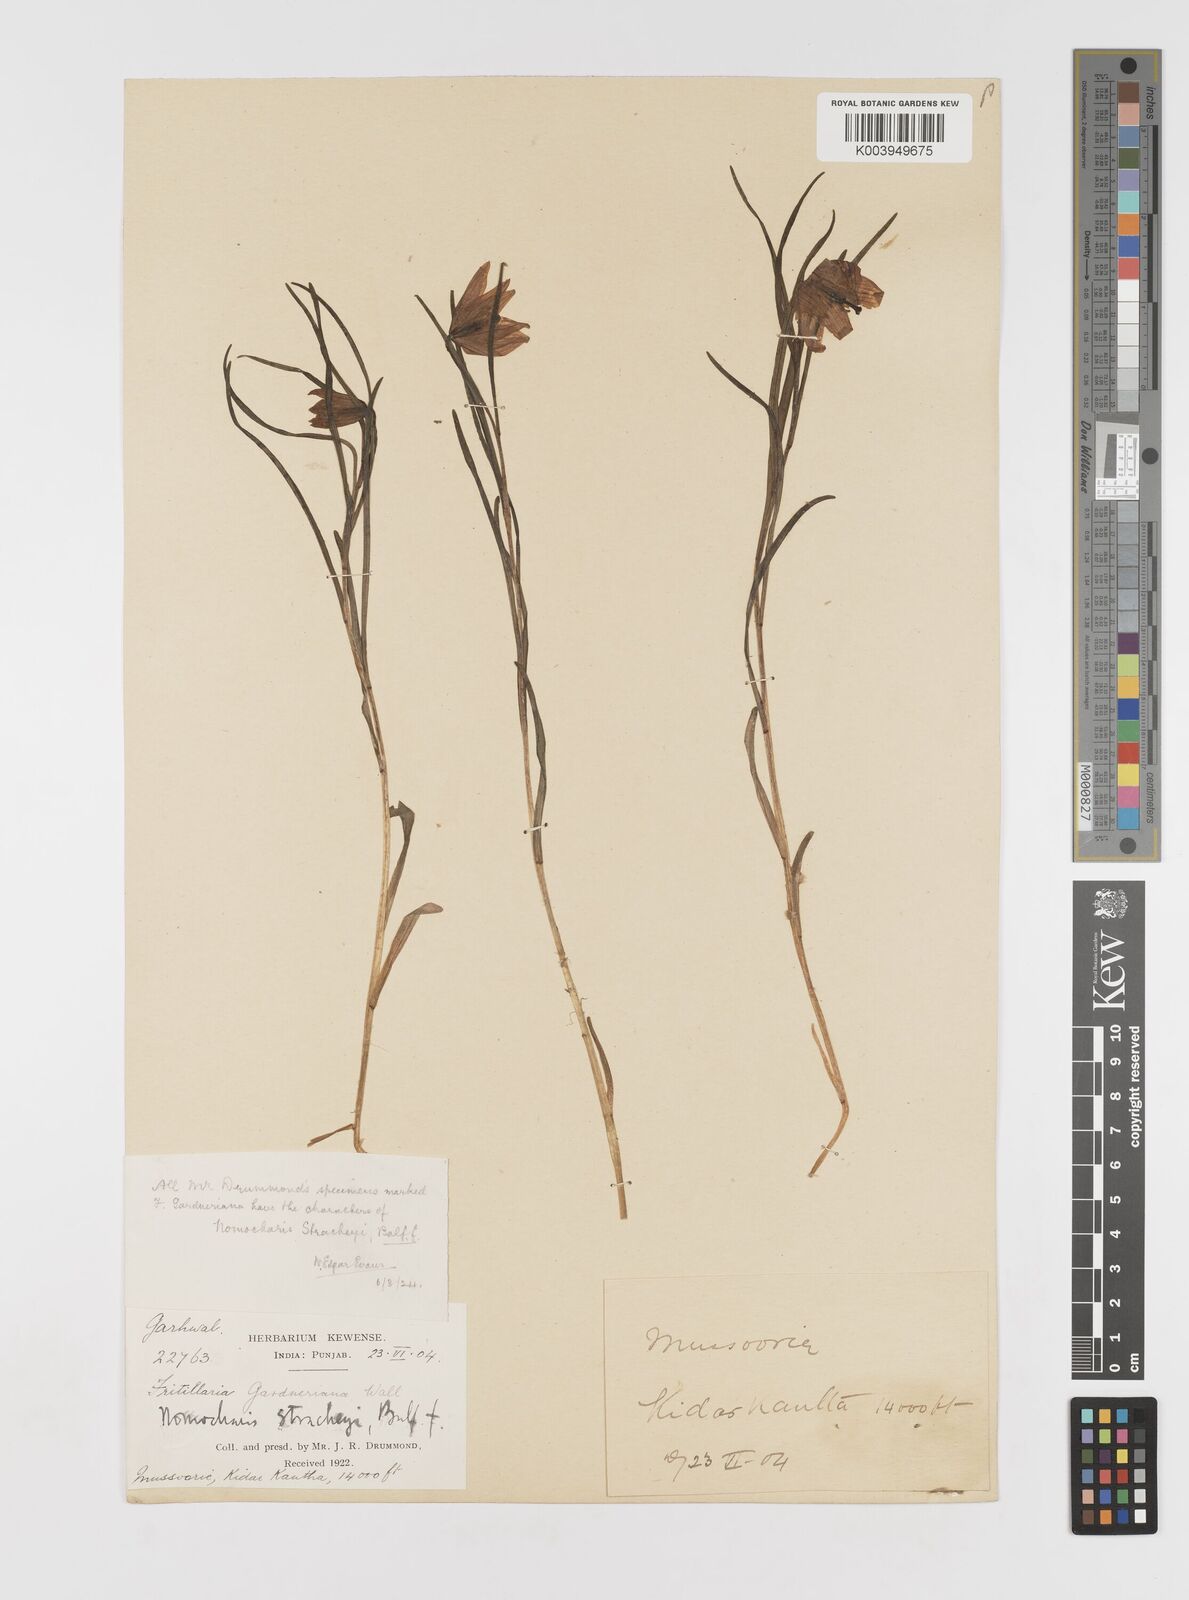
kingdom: Plantae
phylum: Tracheophyta
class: Liliopsida
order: Liliales
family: Liliaceae
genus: Lilium
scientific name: Lilium nanum
